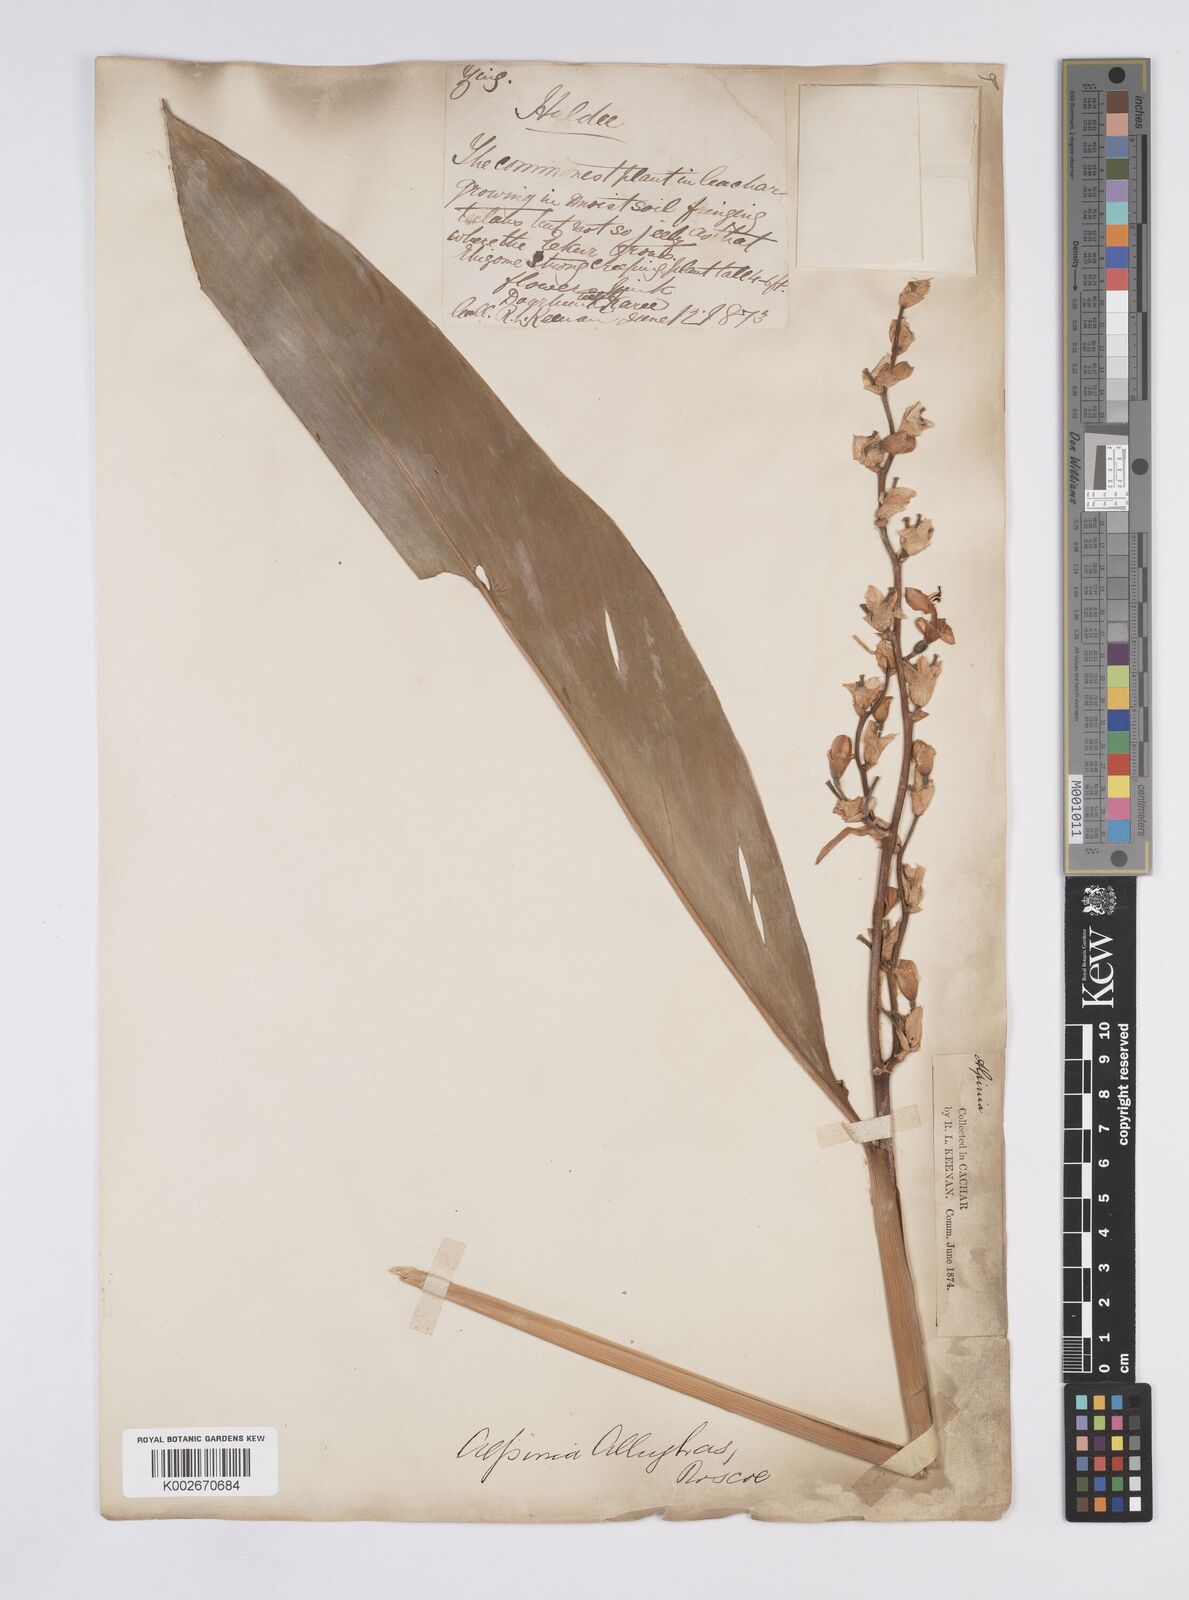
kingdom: Plantae
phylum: Tracheophyta
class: Liliopsida
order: Zingiberales
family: Zingiberaceae
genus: Alpinia
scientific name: Alpinia nigra
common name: Black fruited galanga
